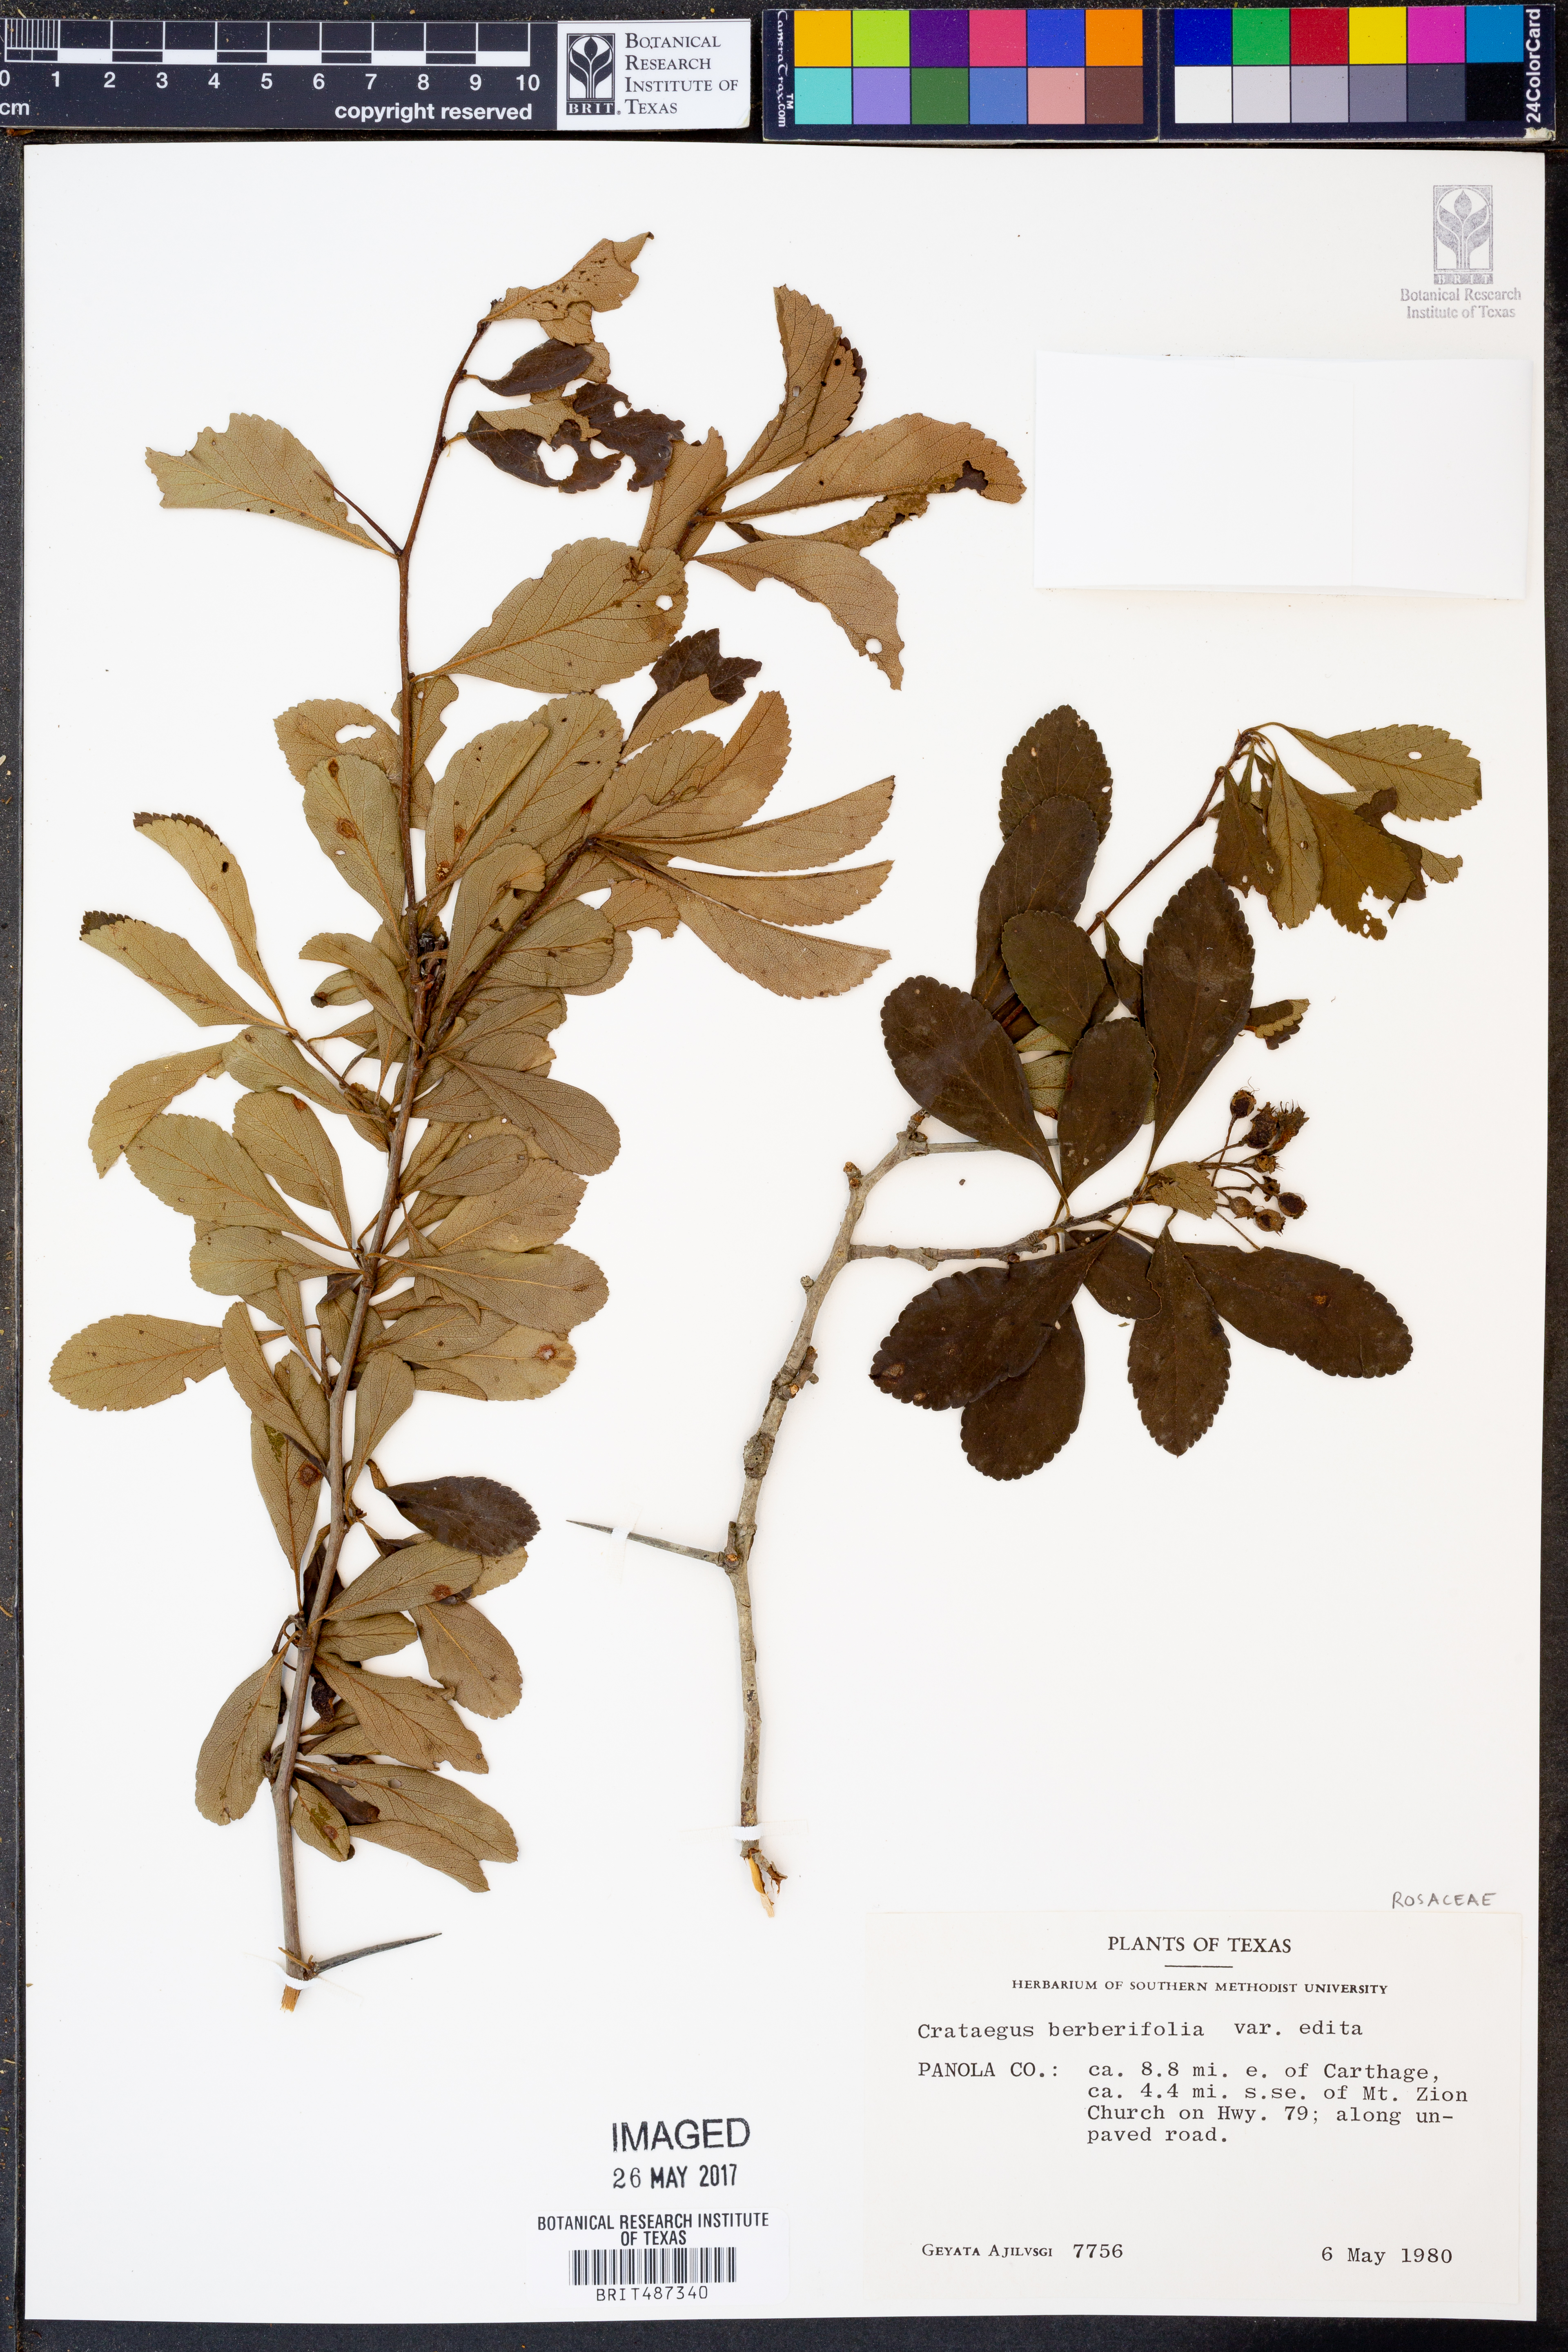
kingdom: Plantae
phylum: Tracheophyta
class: Magnoliopsida
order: Rosales
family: Rosaceae
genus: Crataegus
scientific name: Crataegus berberifolia
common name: Barberry hawthorn
